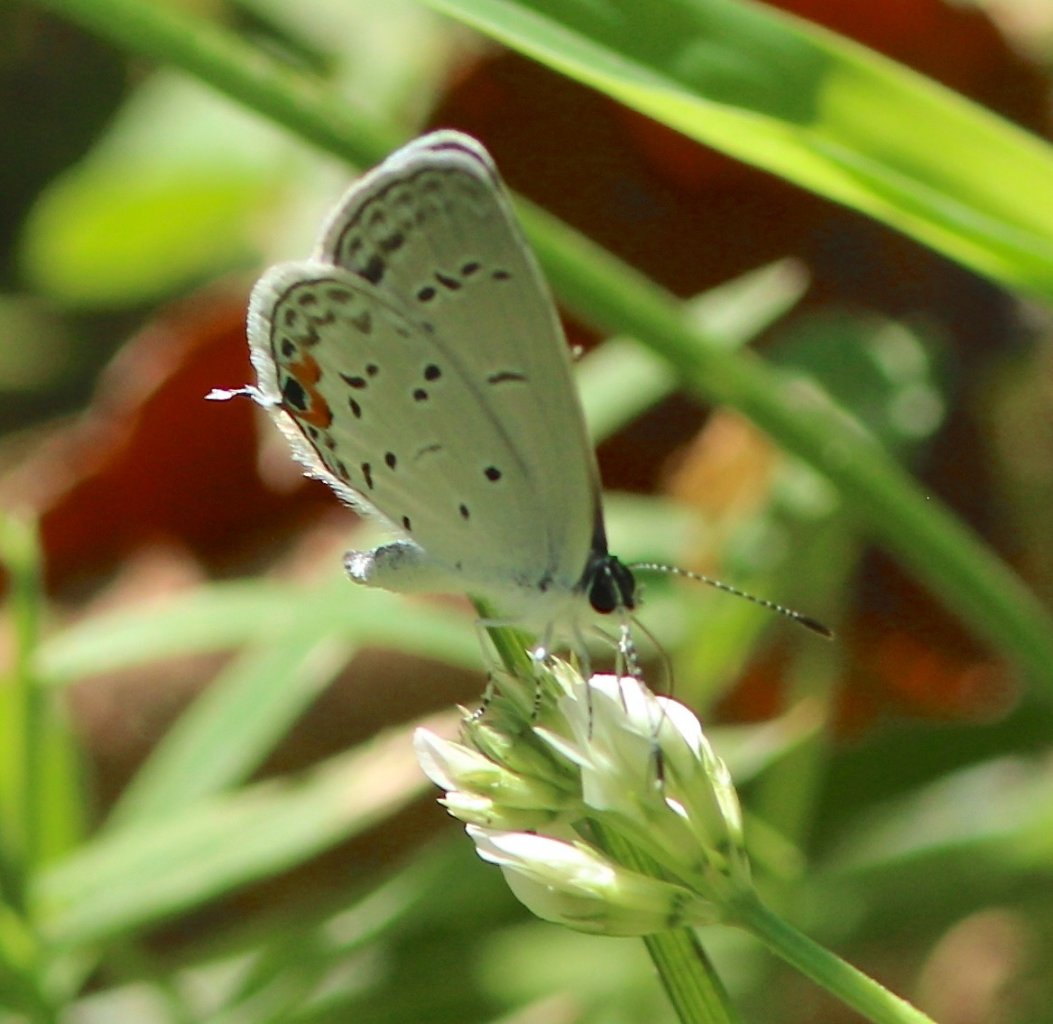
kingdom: Animalia
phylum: Arthropoda
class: Insecta
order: Lepidoptera
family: Lycaenidae
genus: Elkalyce
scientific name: Elkalyce comyntas
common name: Eastern Tailed-Blue
